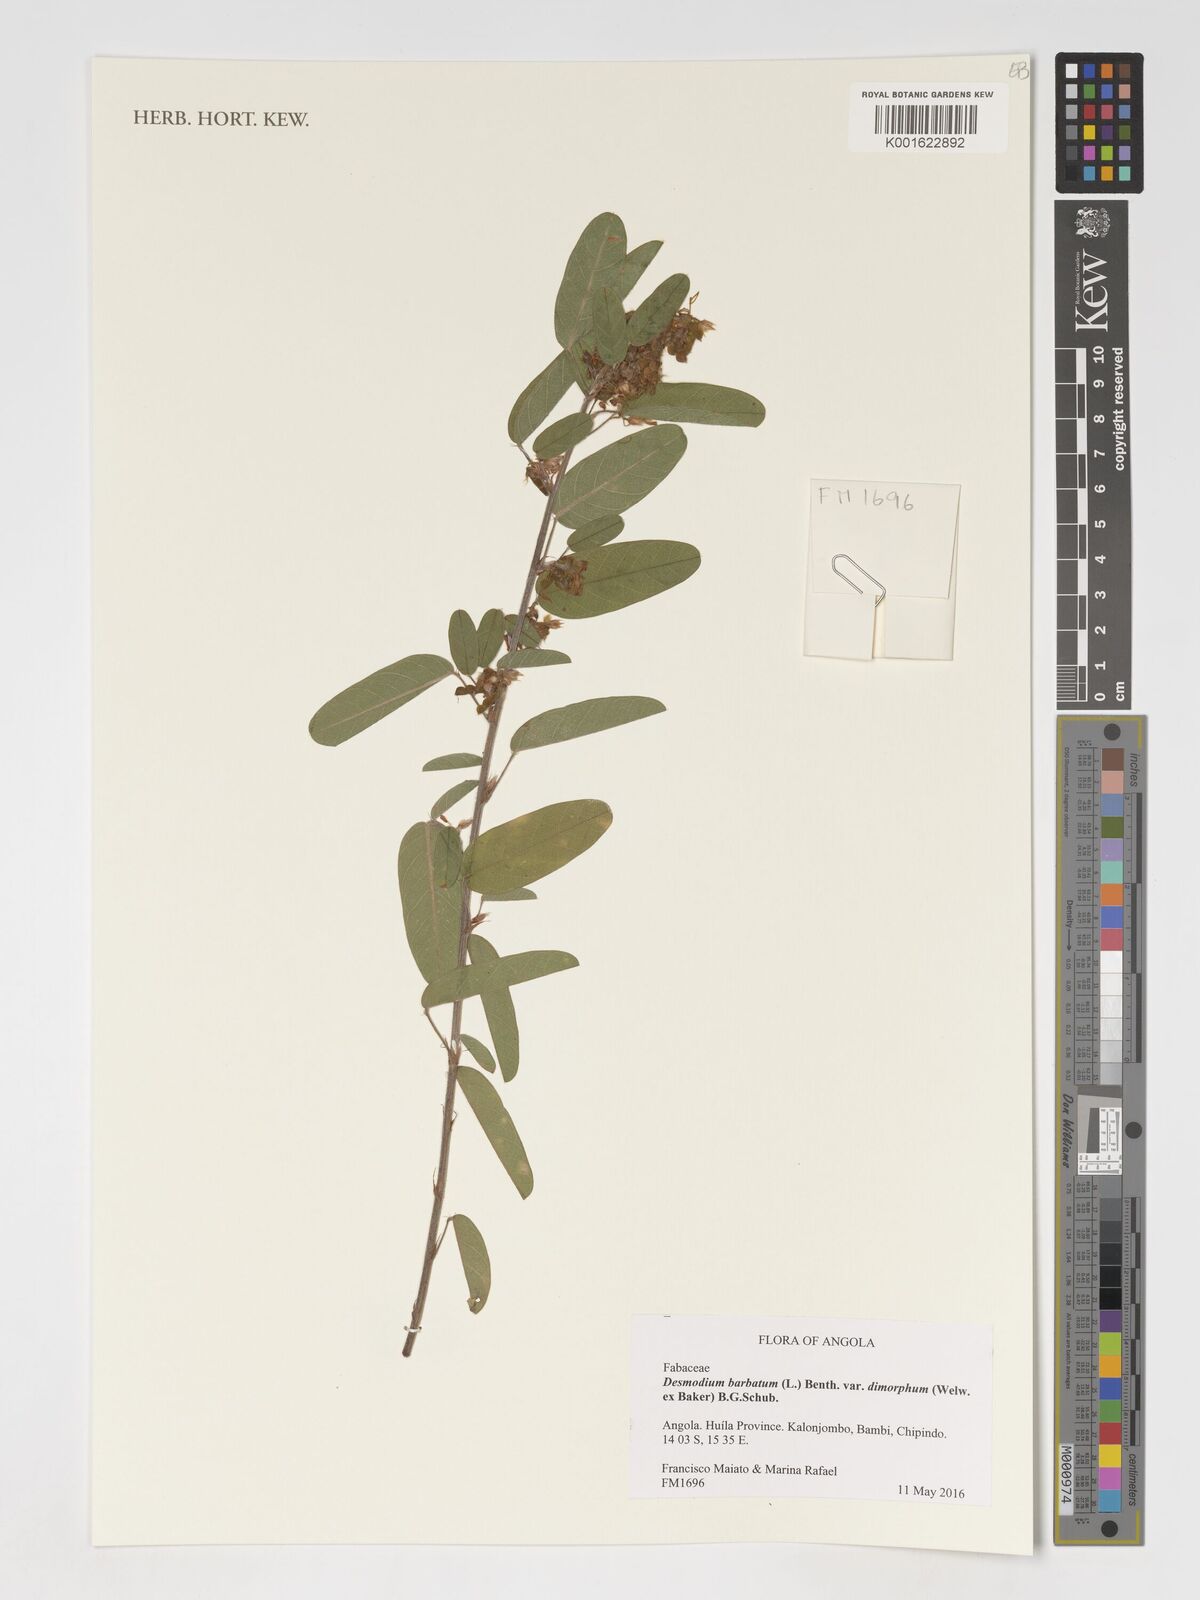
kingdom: Plantae
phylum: Tracheophyta
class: Magnoliopsida
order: Fabales
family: Fabaceae
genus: Grona
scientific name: Grona barbata
